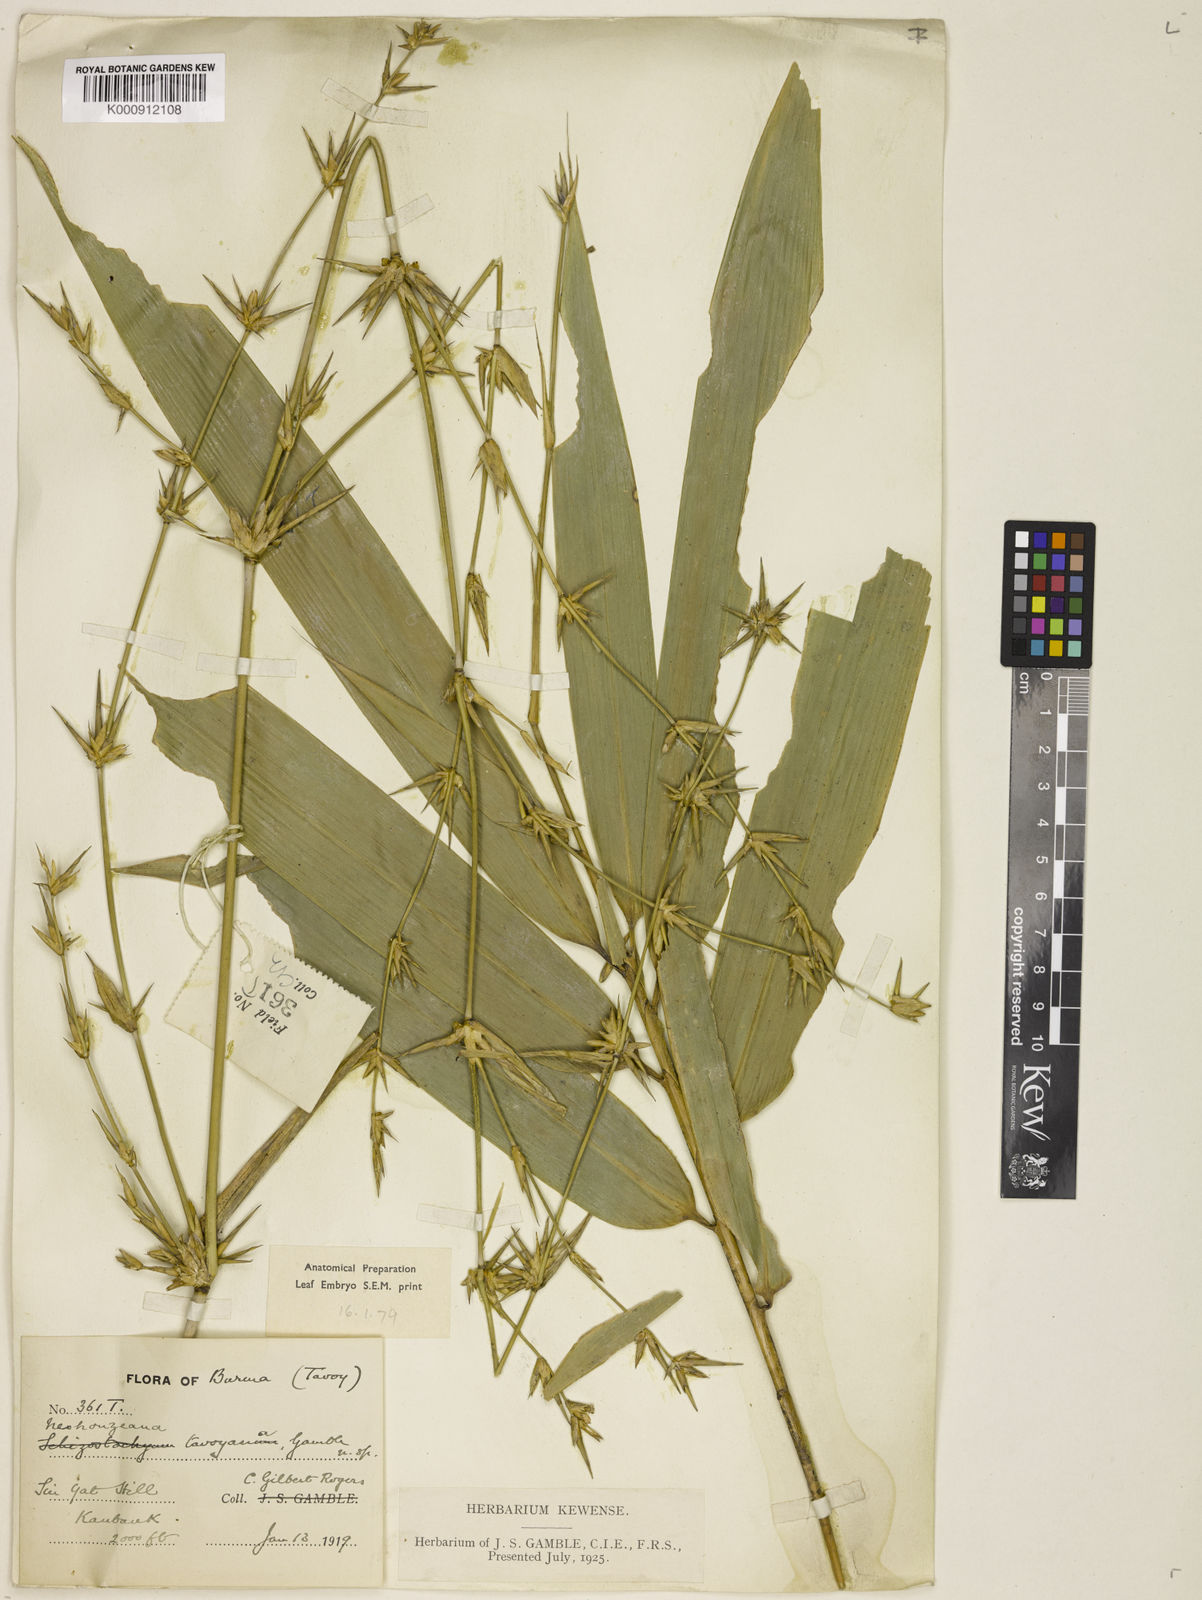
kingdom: Plantae
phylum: Tracheophyta
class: Liliopsida
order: Poales
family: Poaceae
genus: Schizostachyum
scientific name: Schizostachyum tavoyanum
